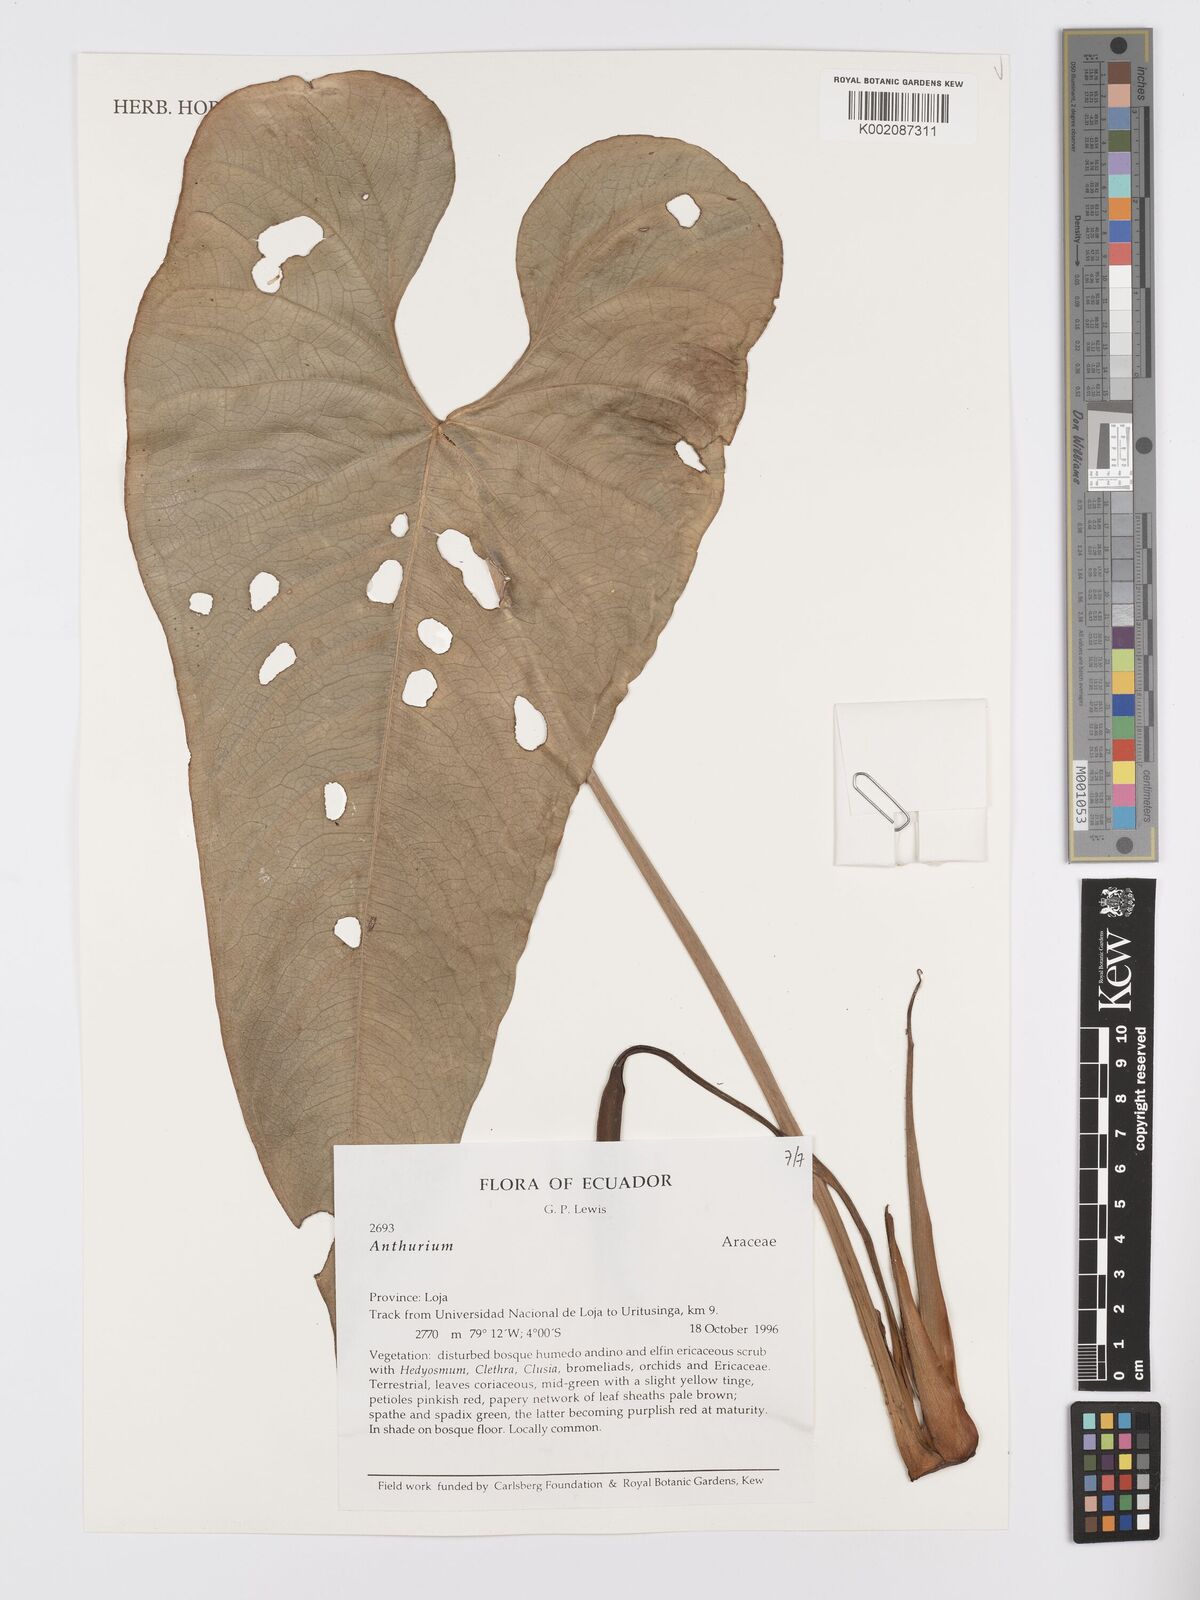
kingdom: Plantae
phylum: Tracheophyta
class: Liliopsida
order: Alismatales
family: Araceae
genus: Anthurium
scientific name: Anthurium
